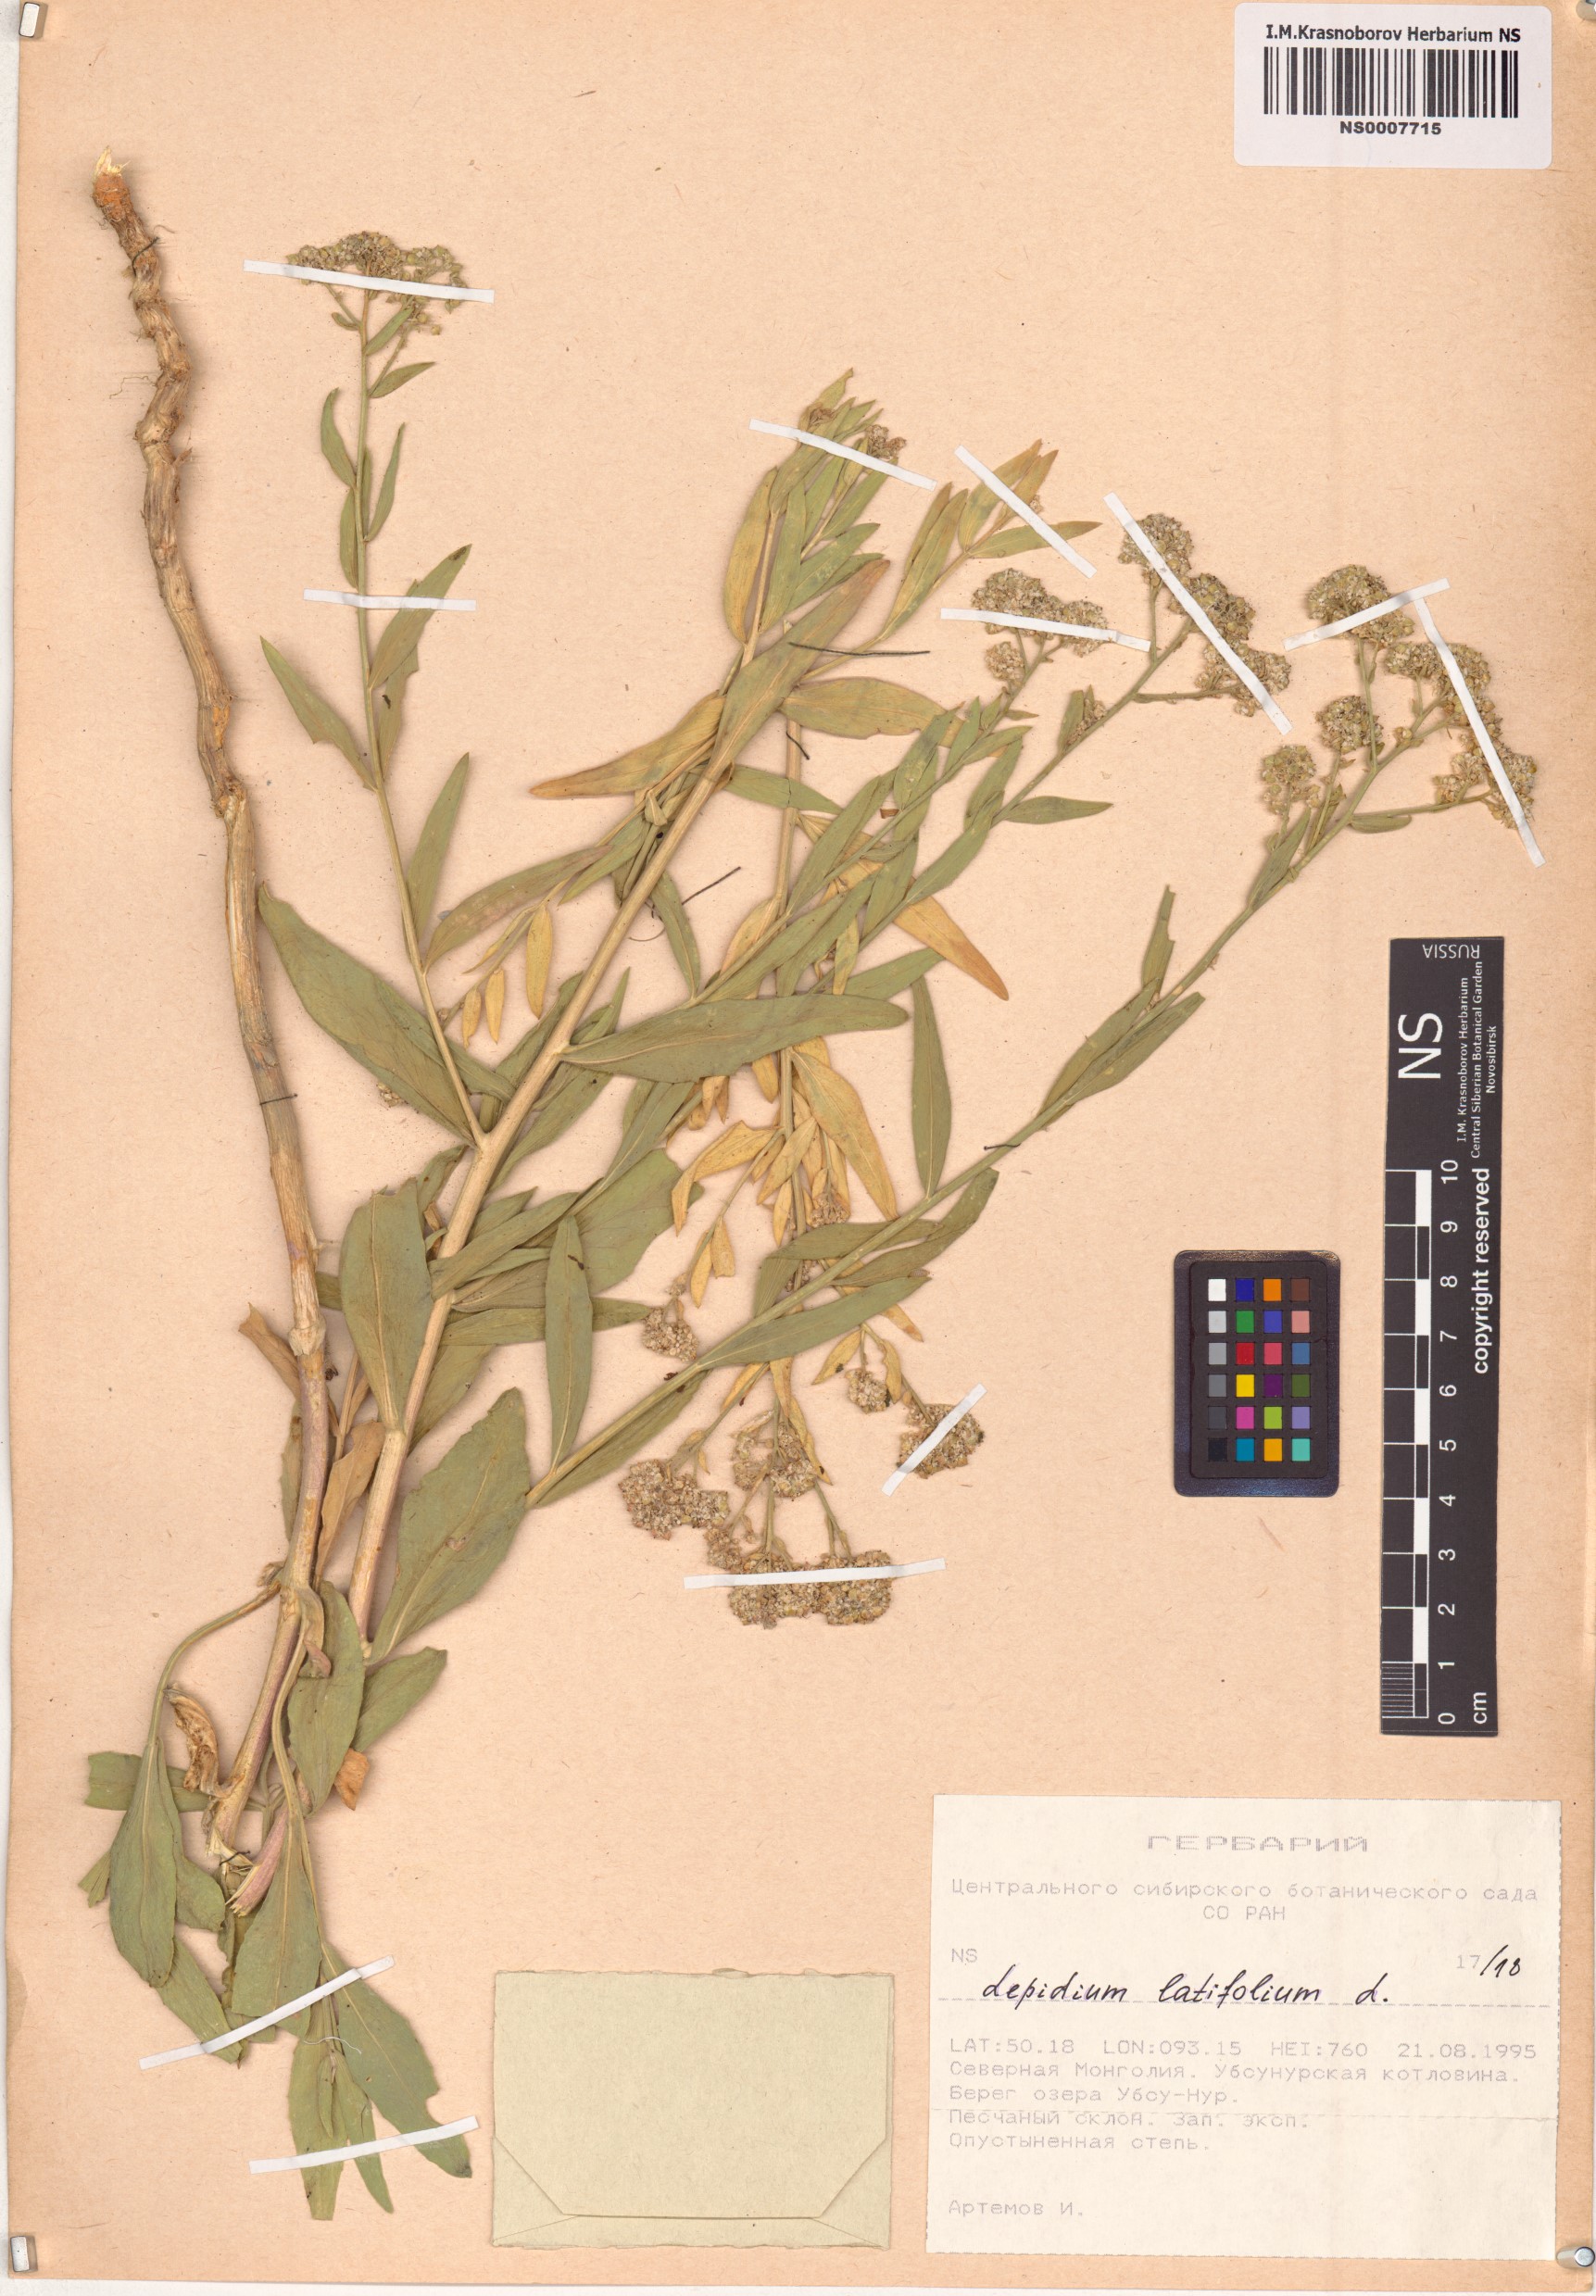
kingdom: Plantae
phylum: Tracheophyta
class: Magnoliopsida
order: Brassicales
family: Brassicaceae
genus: Lepidium
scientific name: Lepidium latifolium
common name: Dittander
